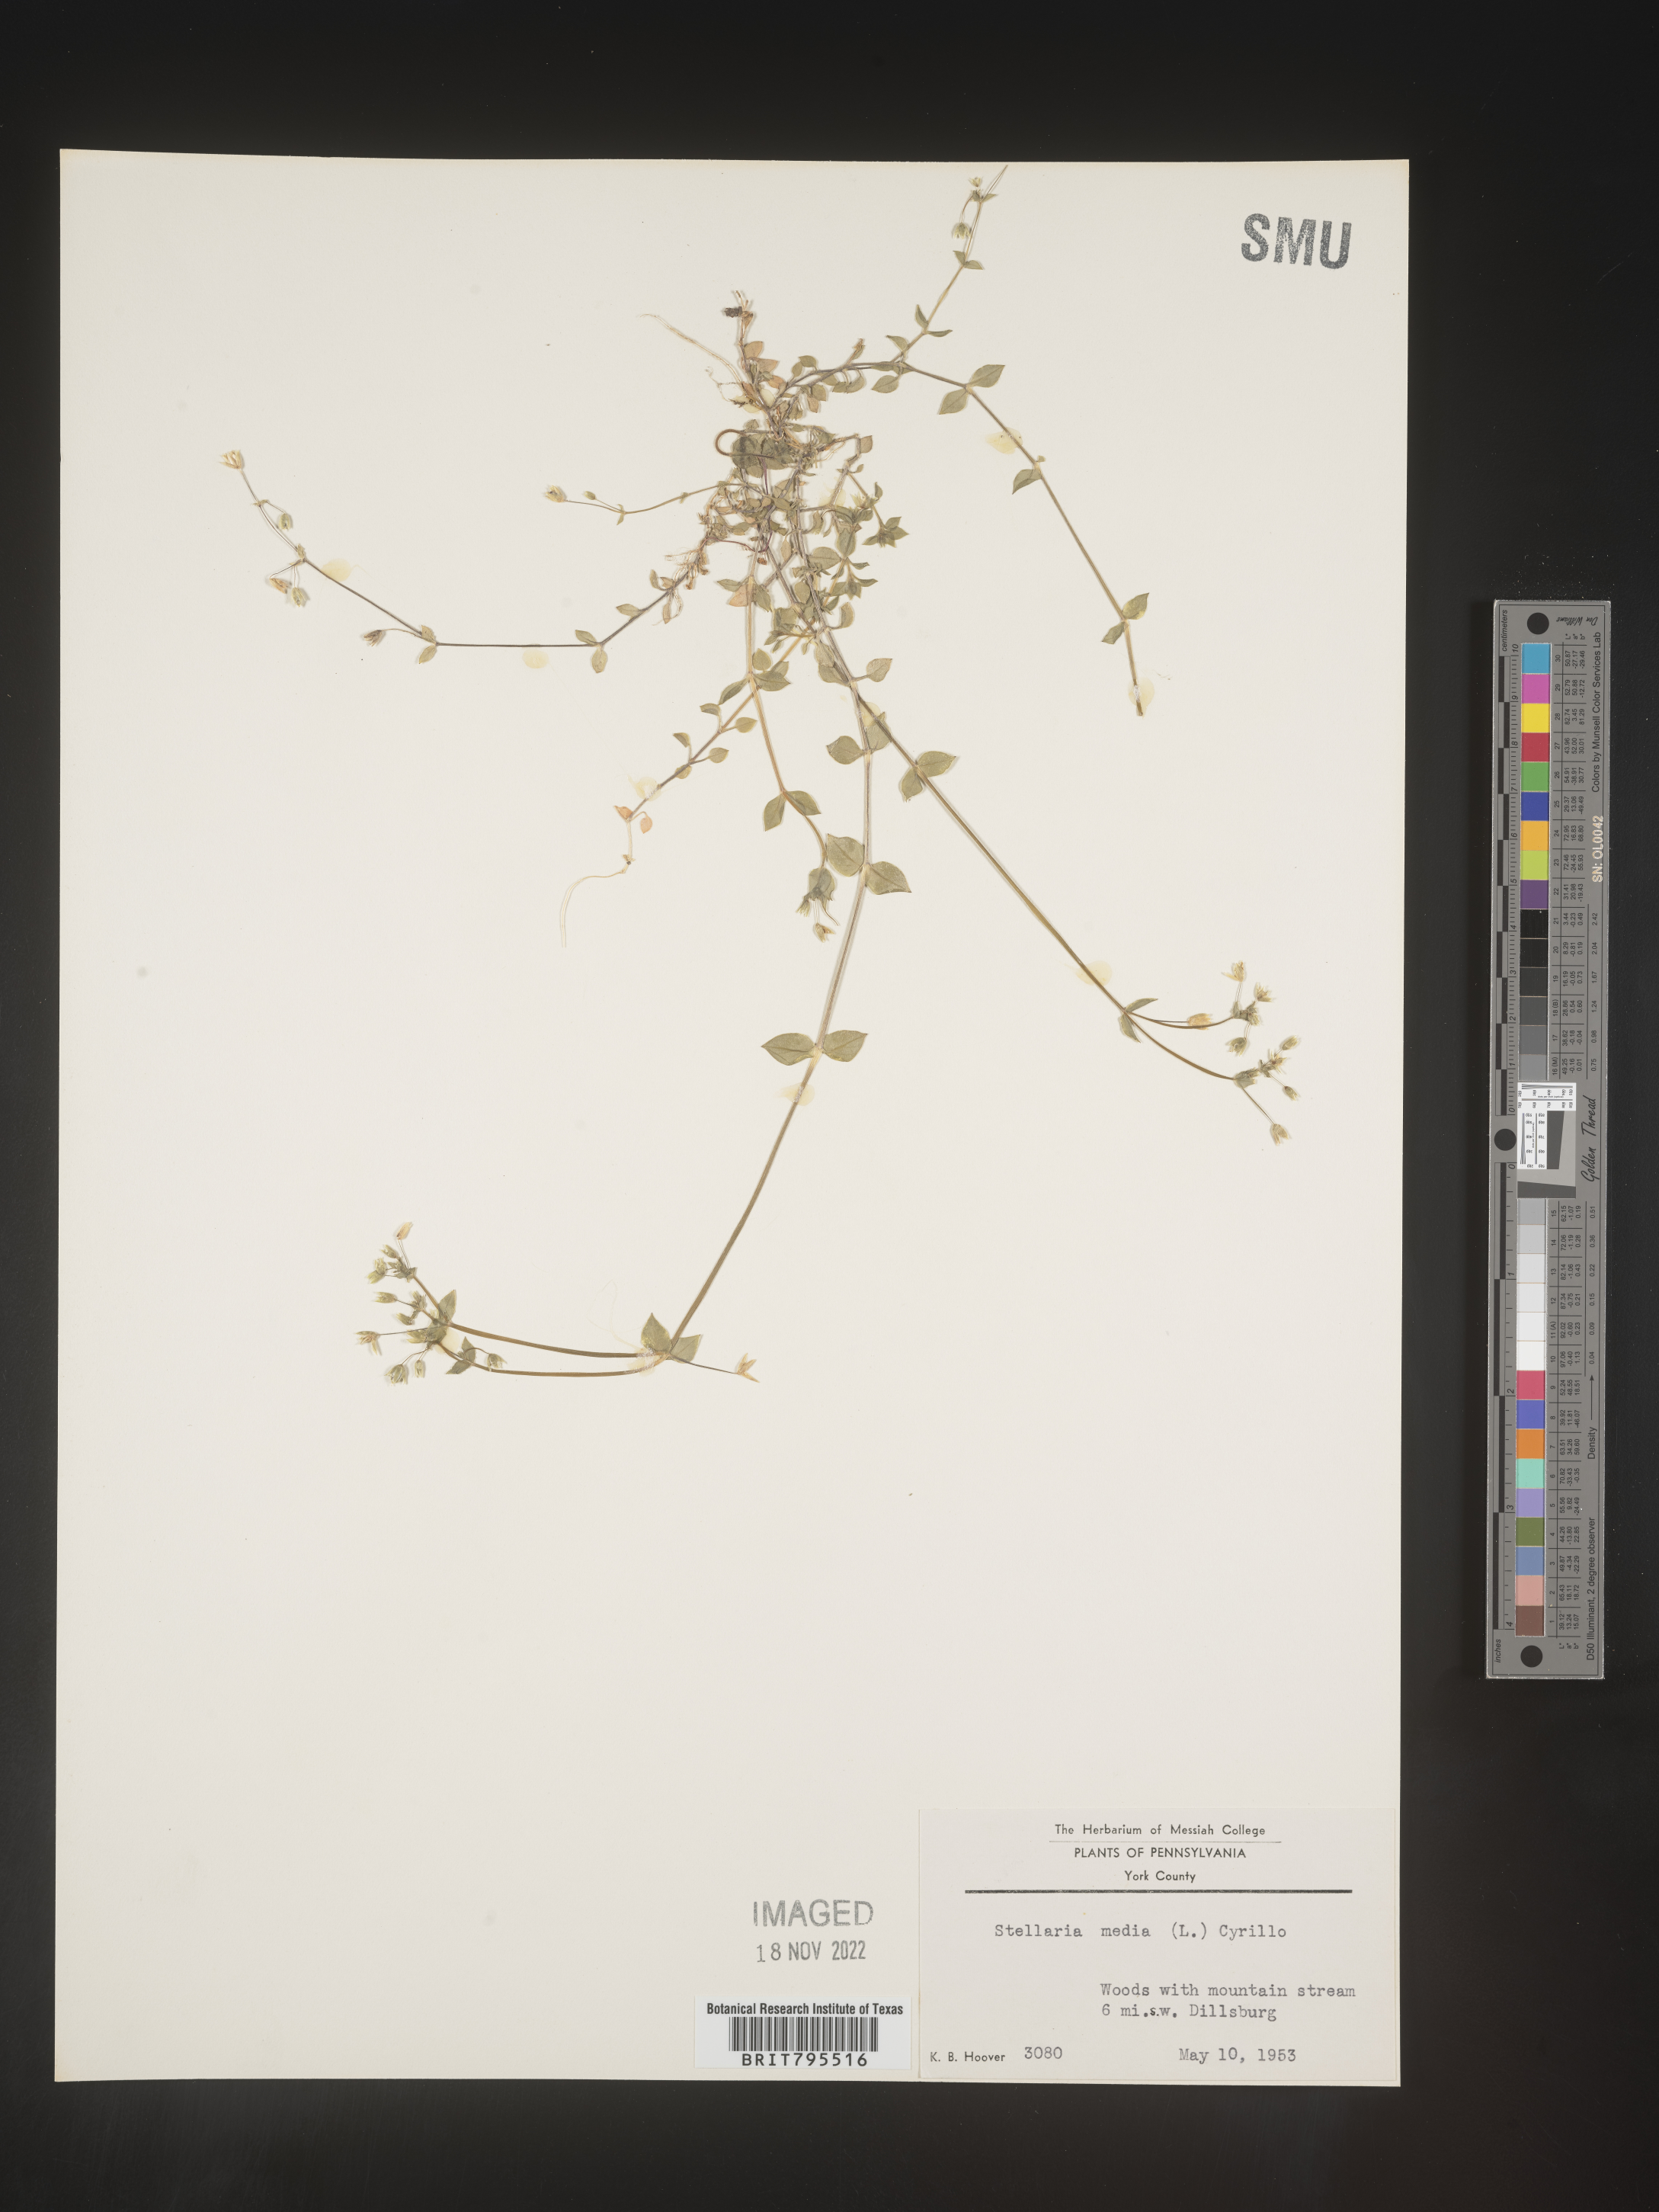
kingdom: Plantae
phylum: Tracheophyta
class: Magnoliopsida
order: Caryophyllales
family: Caryophyllaceae
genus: Stellaria
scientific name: Stellaria media
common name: Common chickweed
